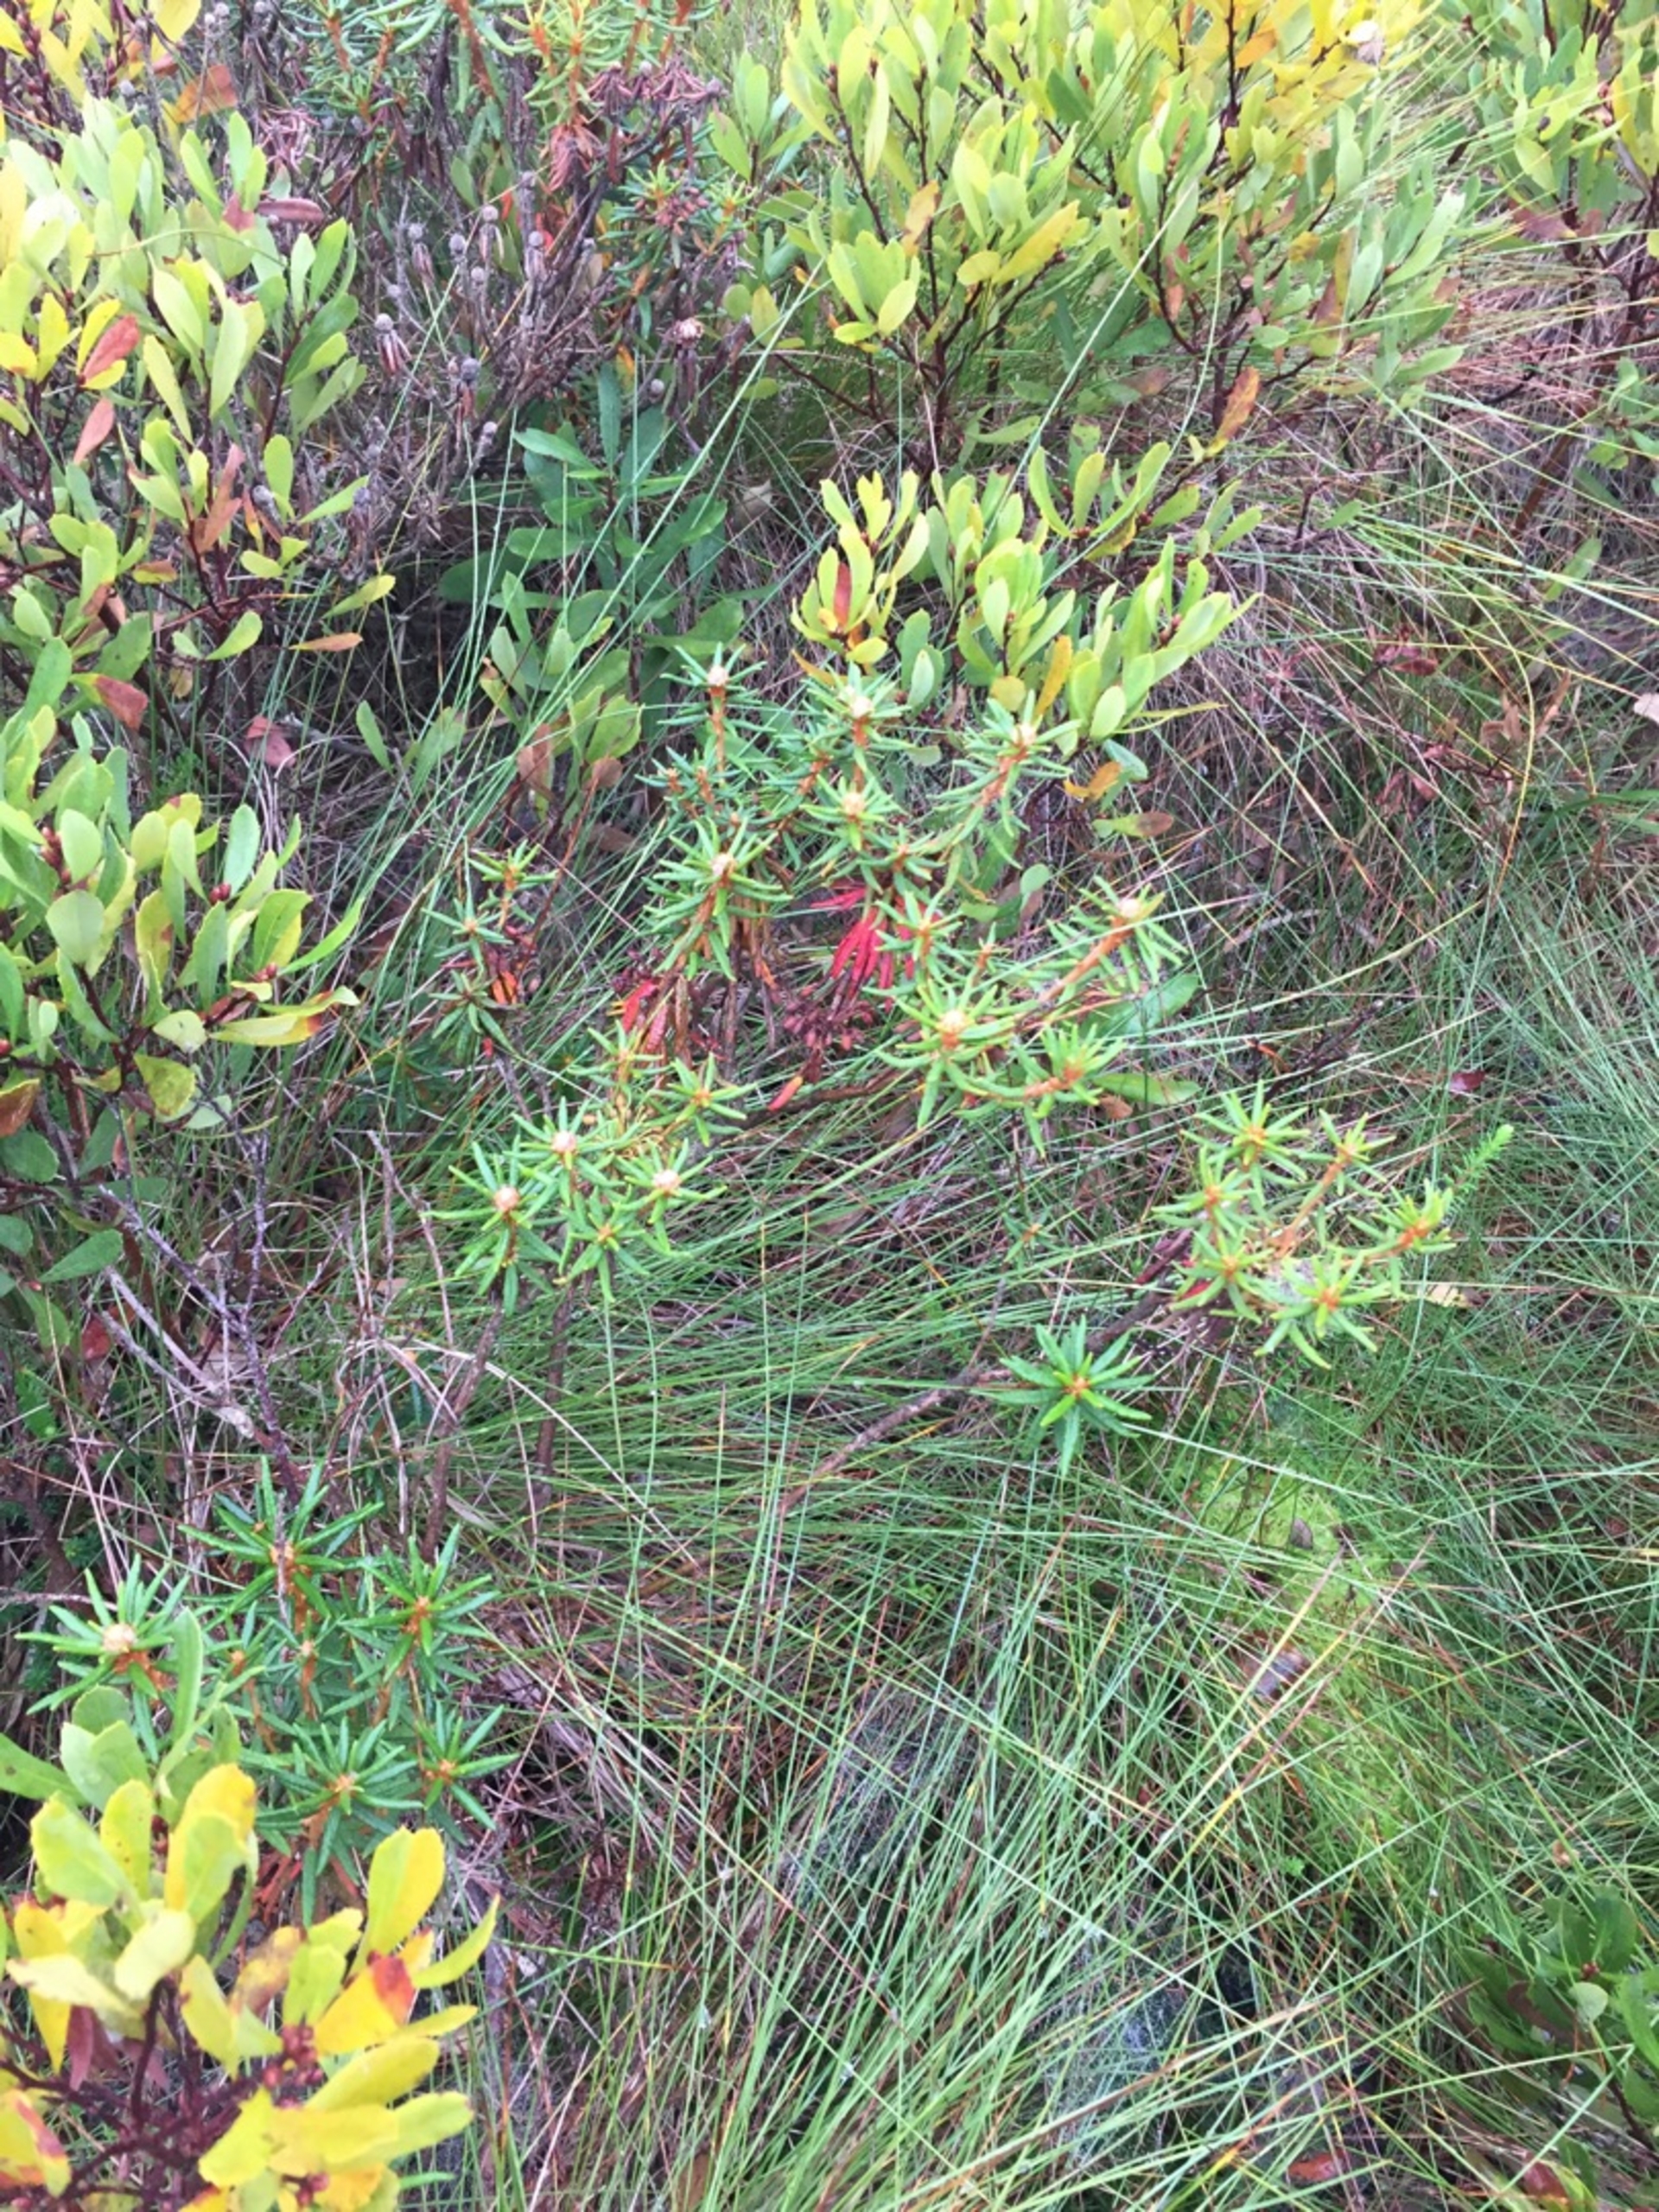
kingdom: Plantae
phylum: Tracheophyta
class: Magnoliopsida
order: Ericales
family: Ericaceae
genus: Rhododendron
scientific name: Rhododendron tomentosum
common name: Mosepost
